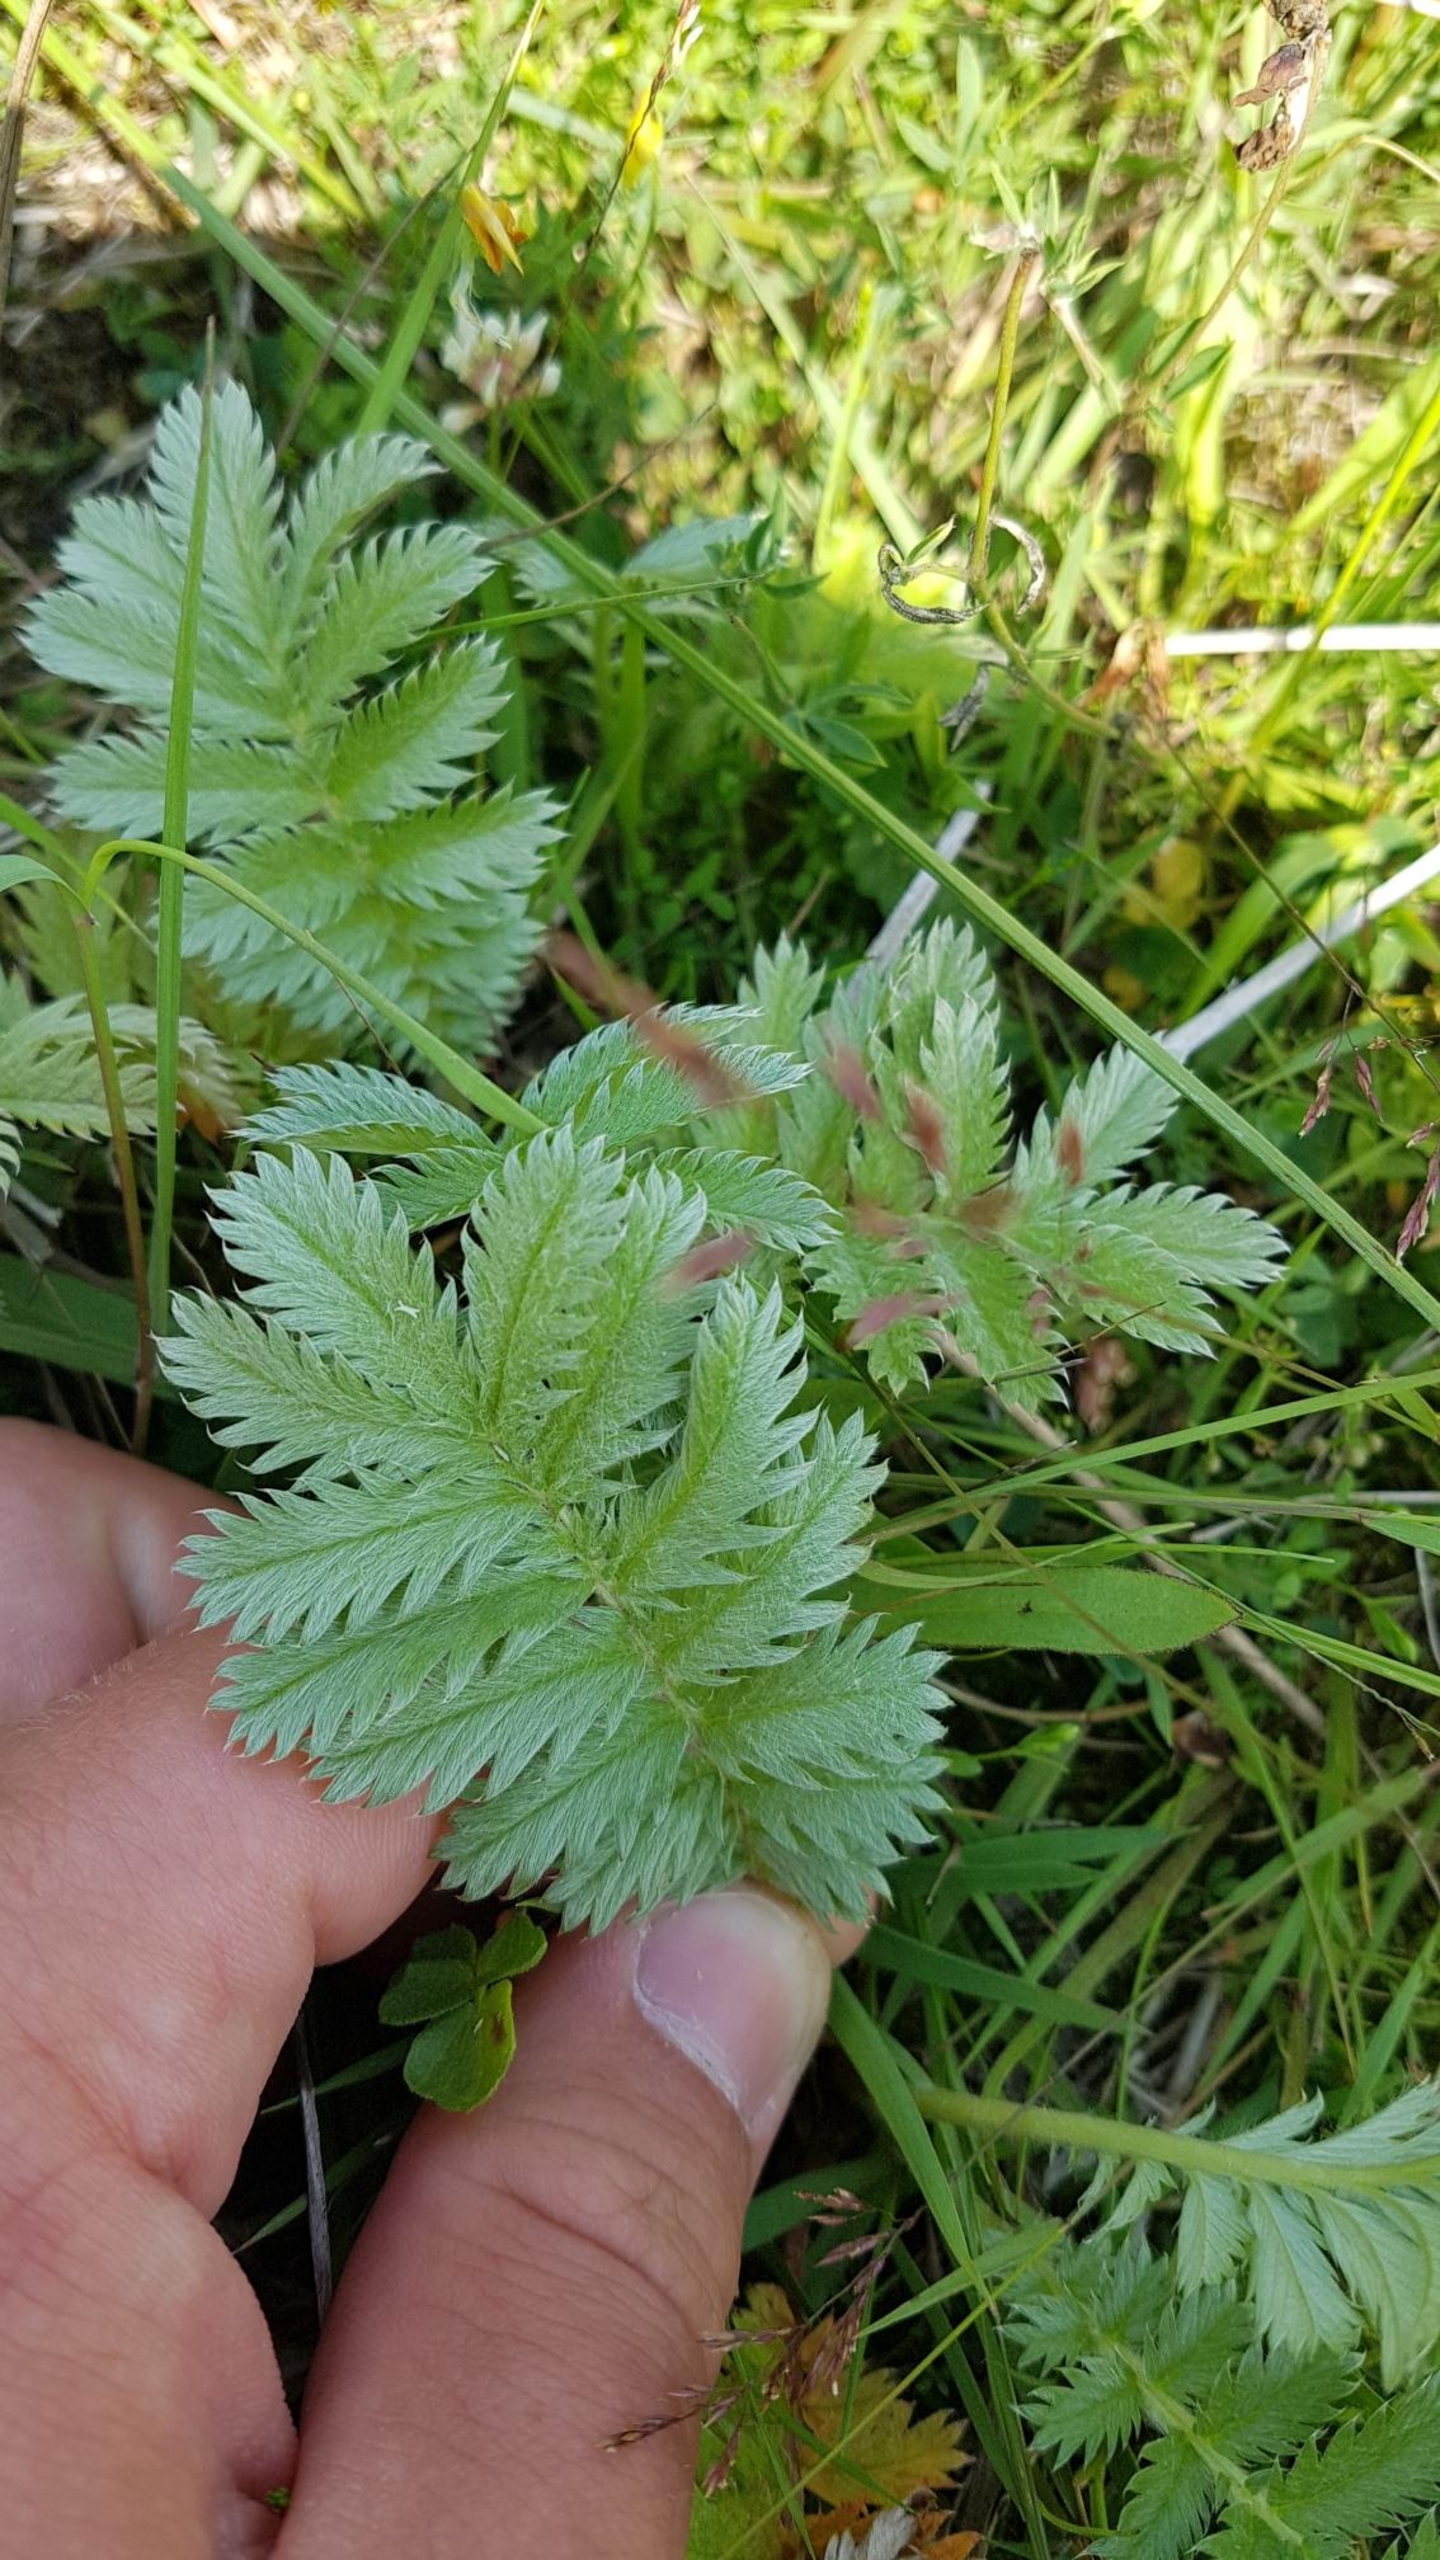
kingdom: Plantae
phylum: Tracheophyta
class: Magnoliopsida
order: Rosales
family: Rosaceae
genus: Argentina
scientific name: Argentina anserina
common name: Gåsepotentil
